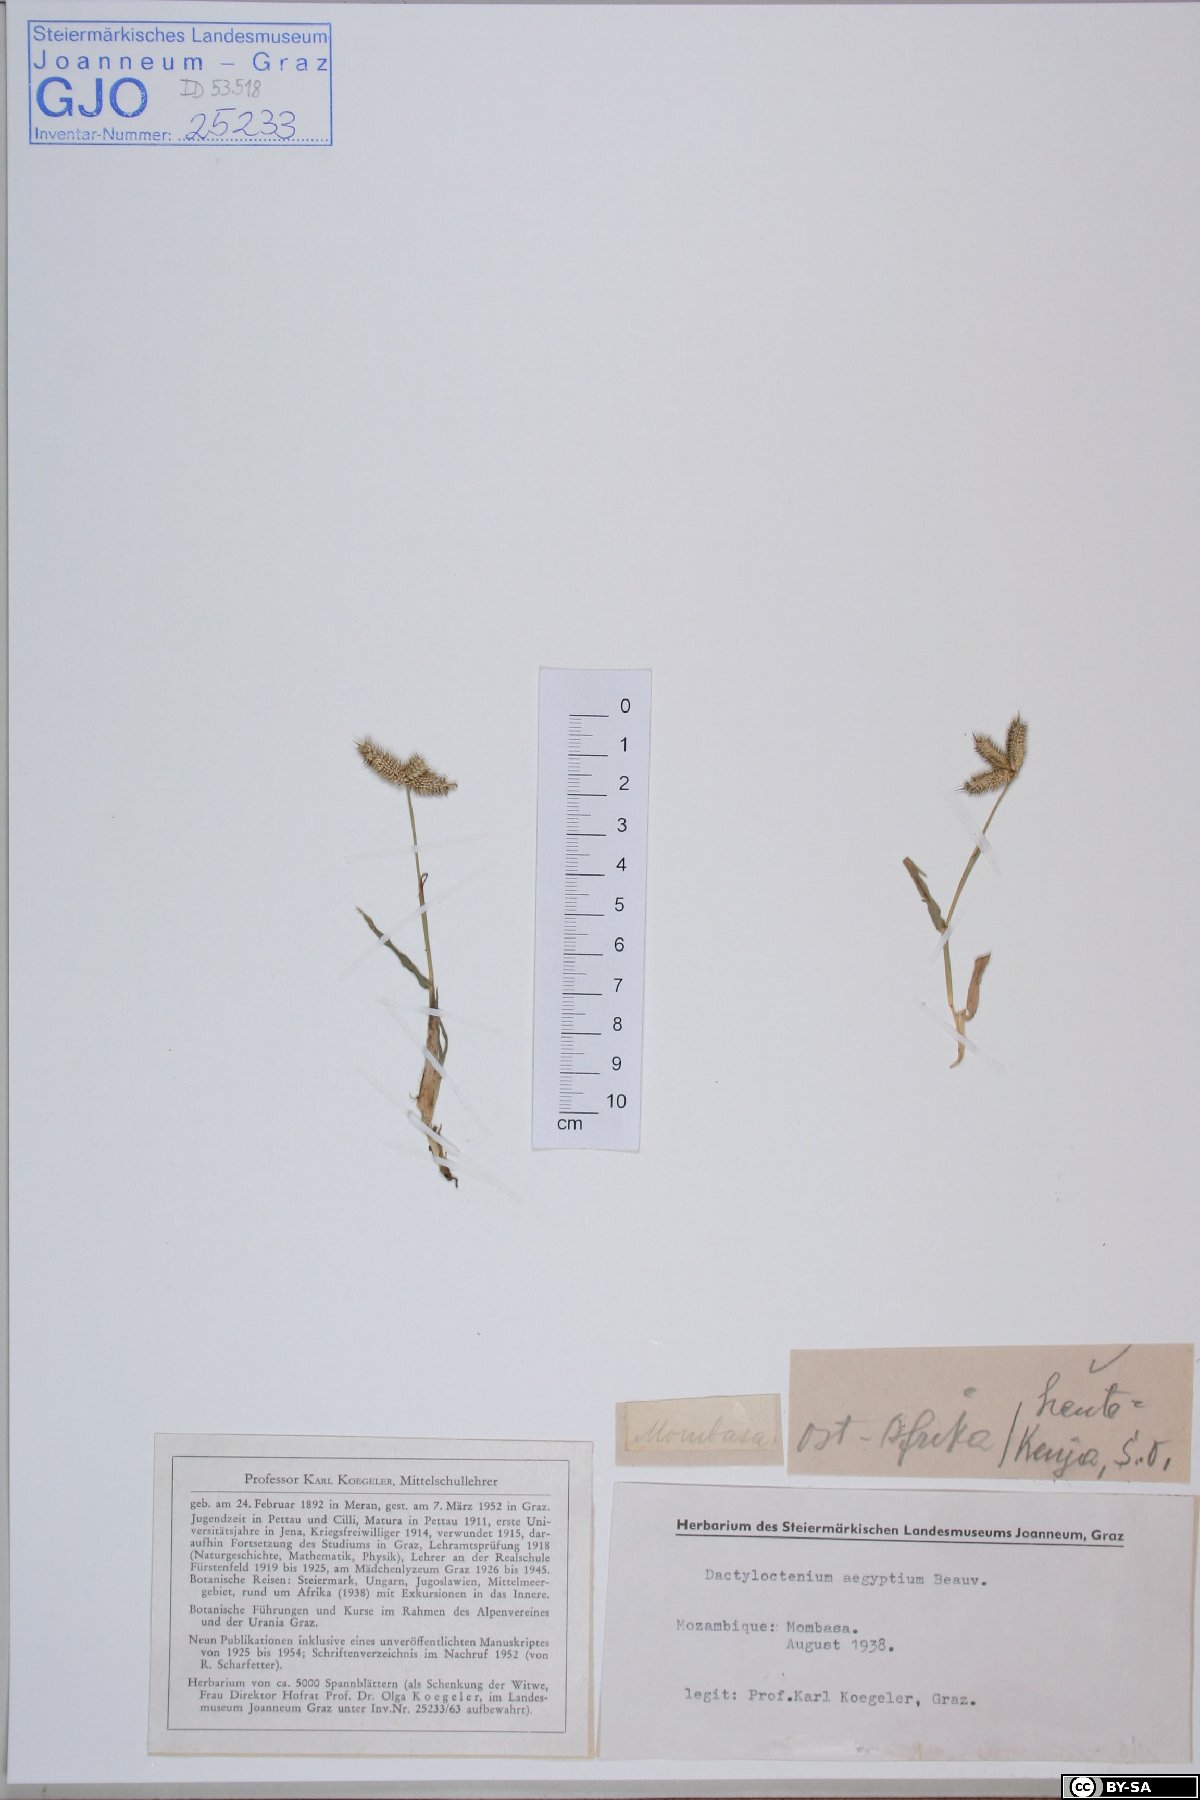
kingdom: Plantae
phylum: Tracheophyta
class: Liliopsida
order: Poales
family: Poaceae
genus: Dactyloctenium
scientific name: Dactyloctenium aegyptium
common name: Egyptian grass
